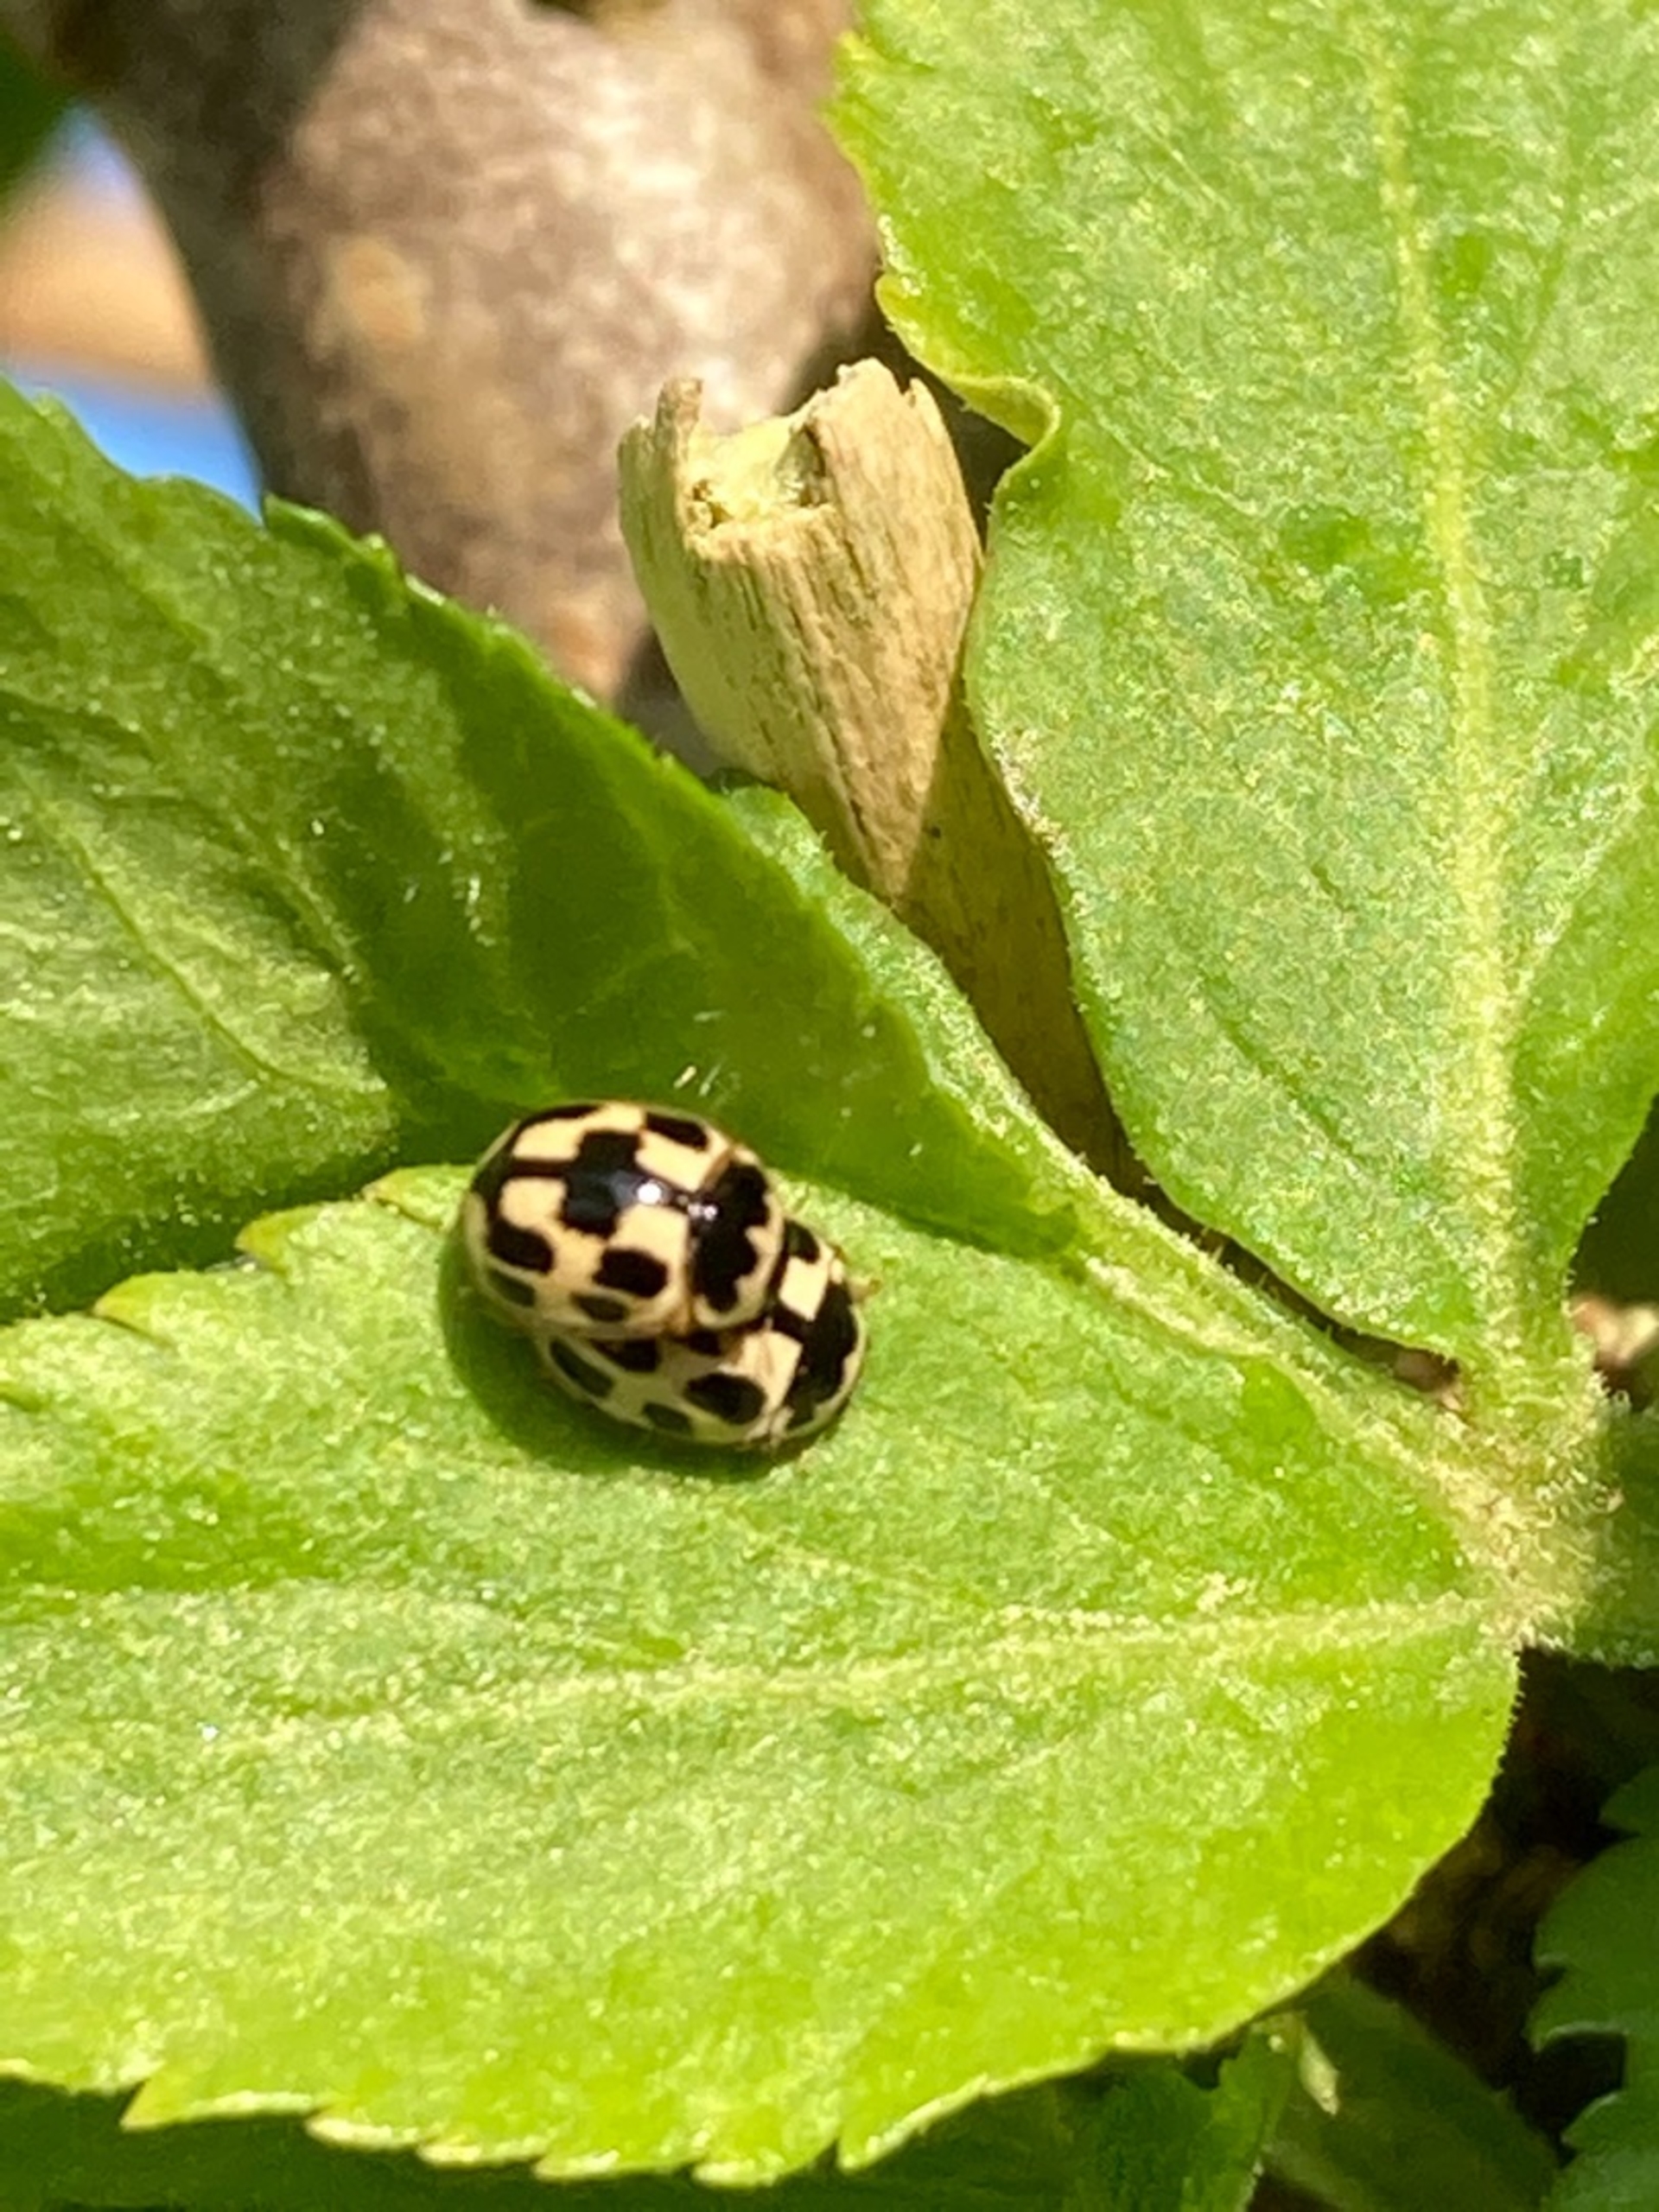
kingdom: Animalia
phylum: Arthropoda
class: Insecta
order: Coleoptera
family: Coccinellidae
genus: Propylaea
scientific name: Propylaea quatuordecimpunctata
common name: Skakbræt
